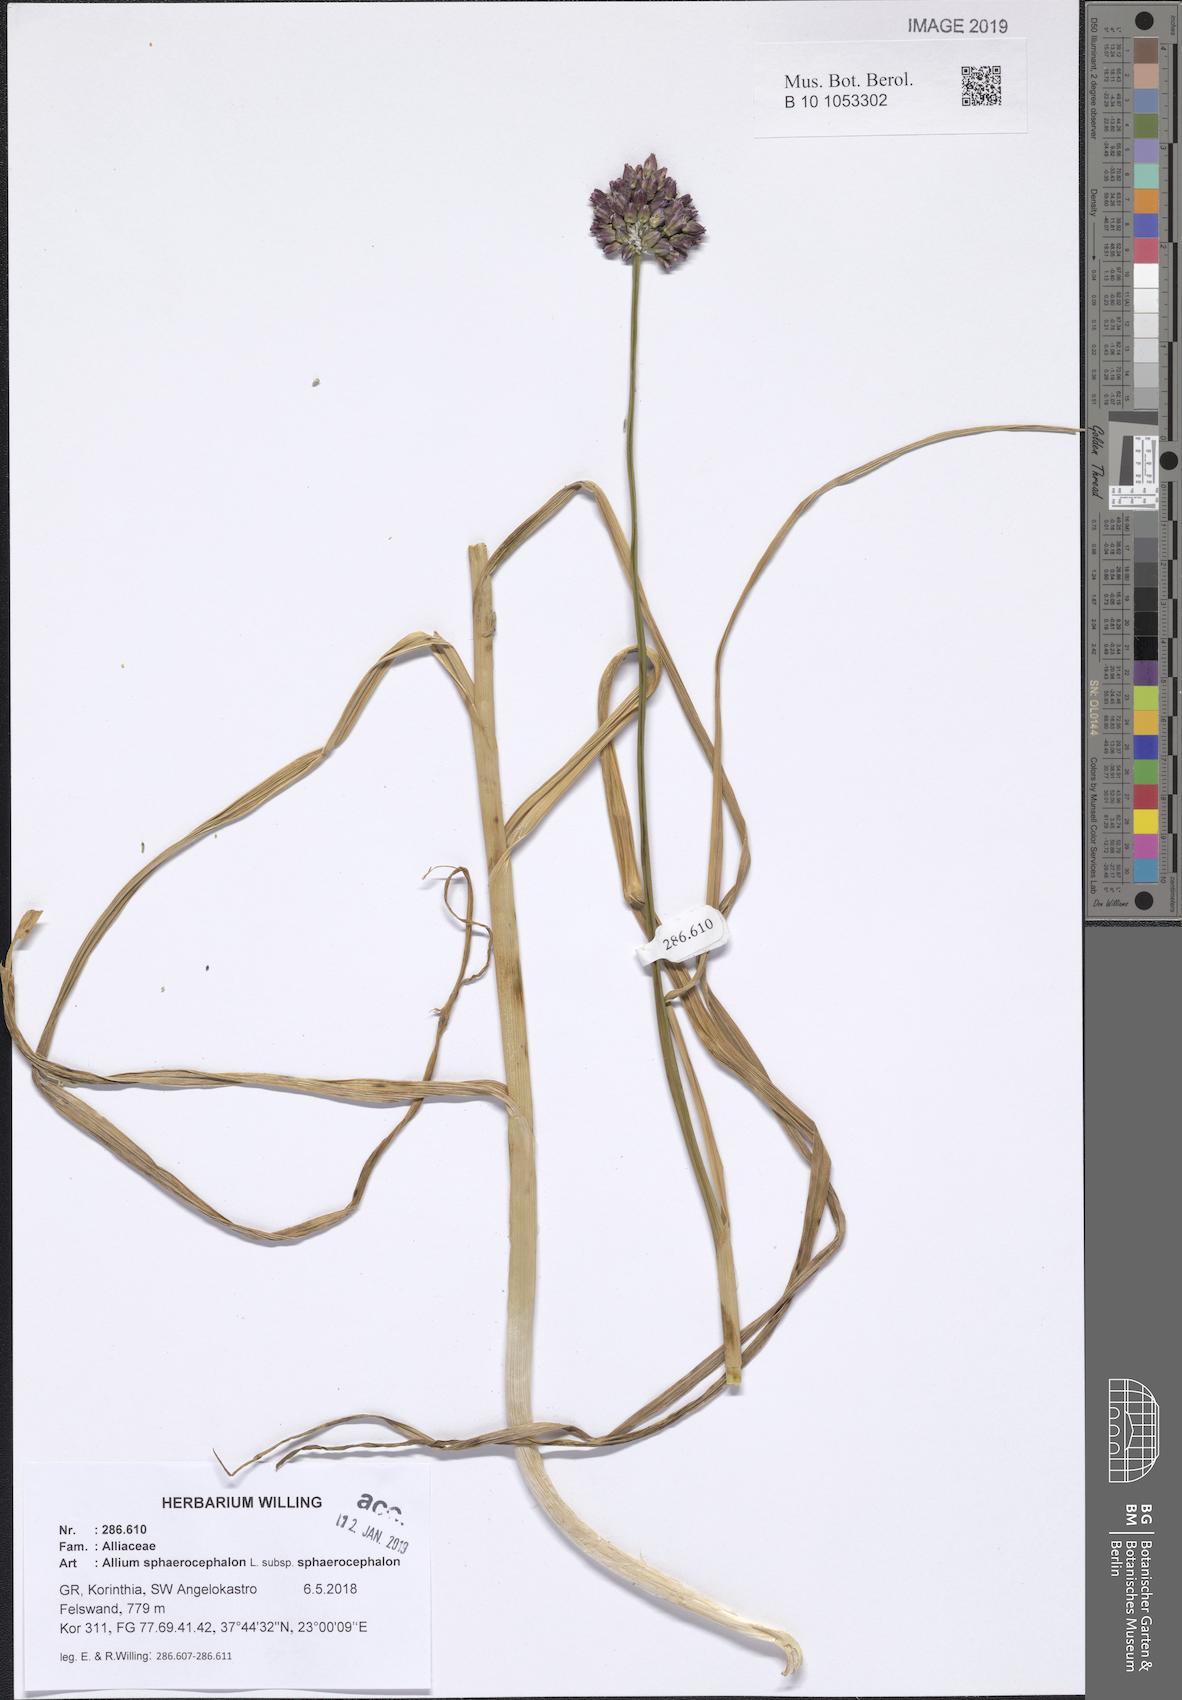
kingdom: Plantae
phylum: Tracheophyta
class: Liliopsida
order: Asparagales
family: Amaryllidaceae
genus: Allium
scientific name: Allium sphaerocephalon
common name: Round-headed leek
